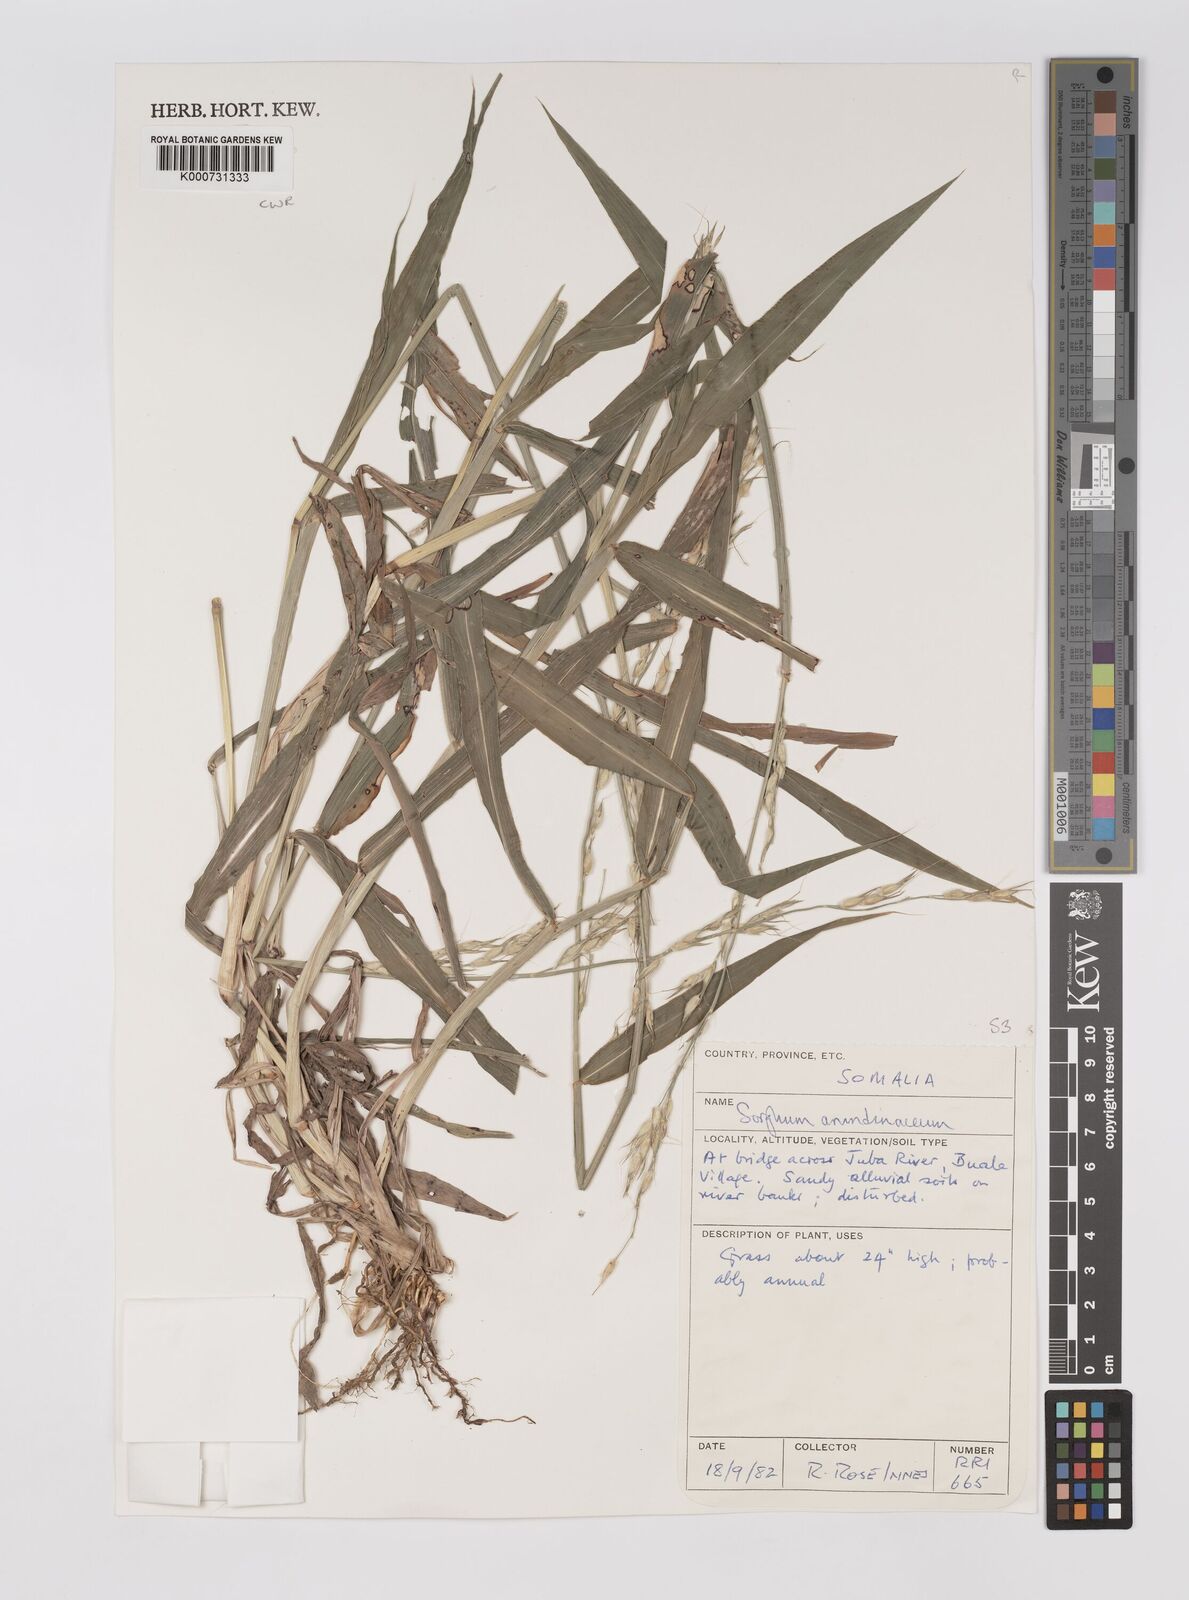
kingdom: Plantae
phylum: Tracheophyta
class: Liliopsida
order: Poales
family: Poaceae
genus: Sorghum
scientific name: Sorghum arundinaceum
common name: Sorghum
